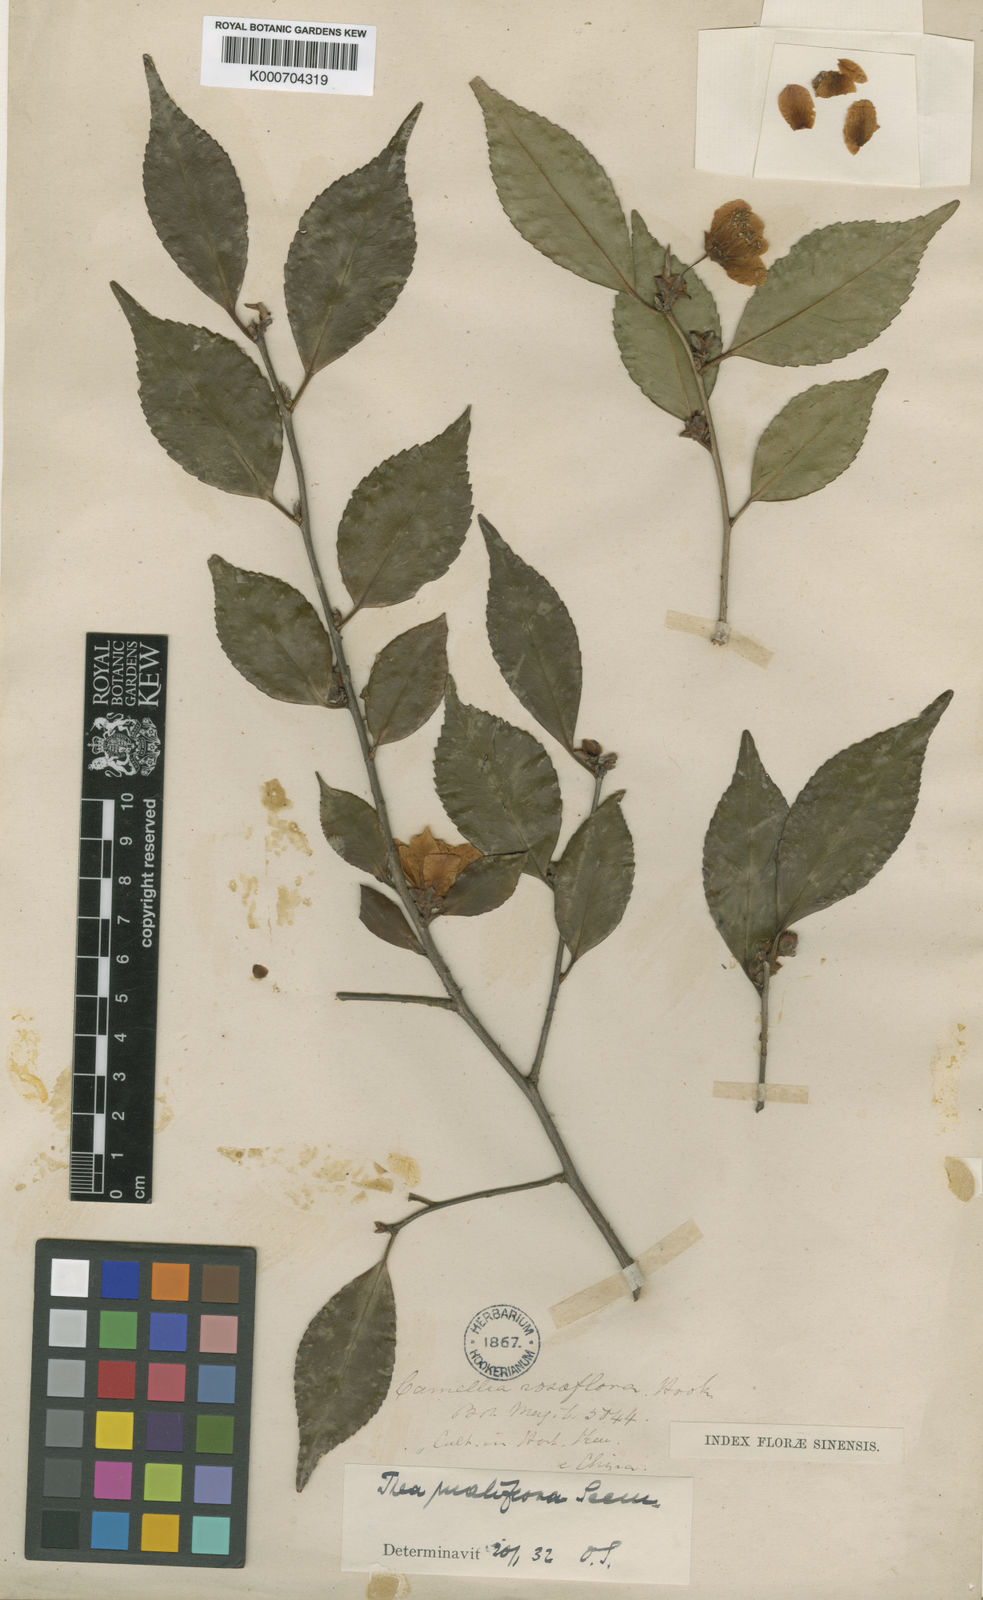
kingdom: Plantae
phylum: Tracheophyta
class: Magnoliopsida
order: Ericales
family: Theaceae
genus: Camellia
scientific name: Camellia rosiflora
